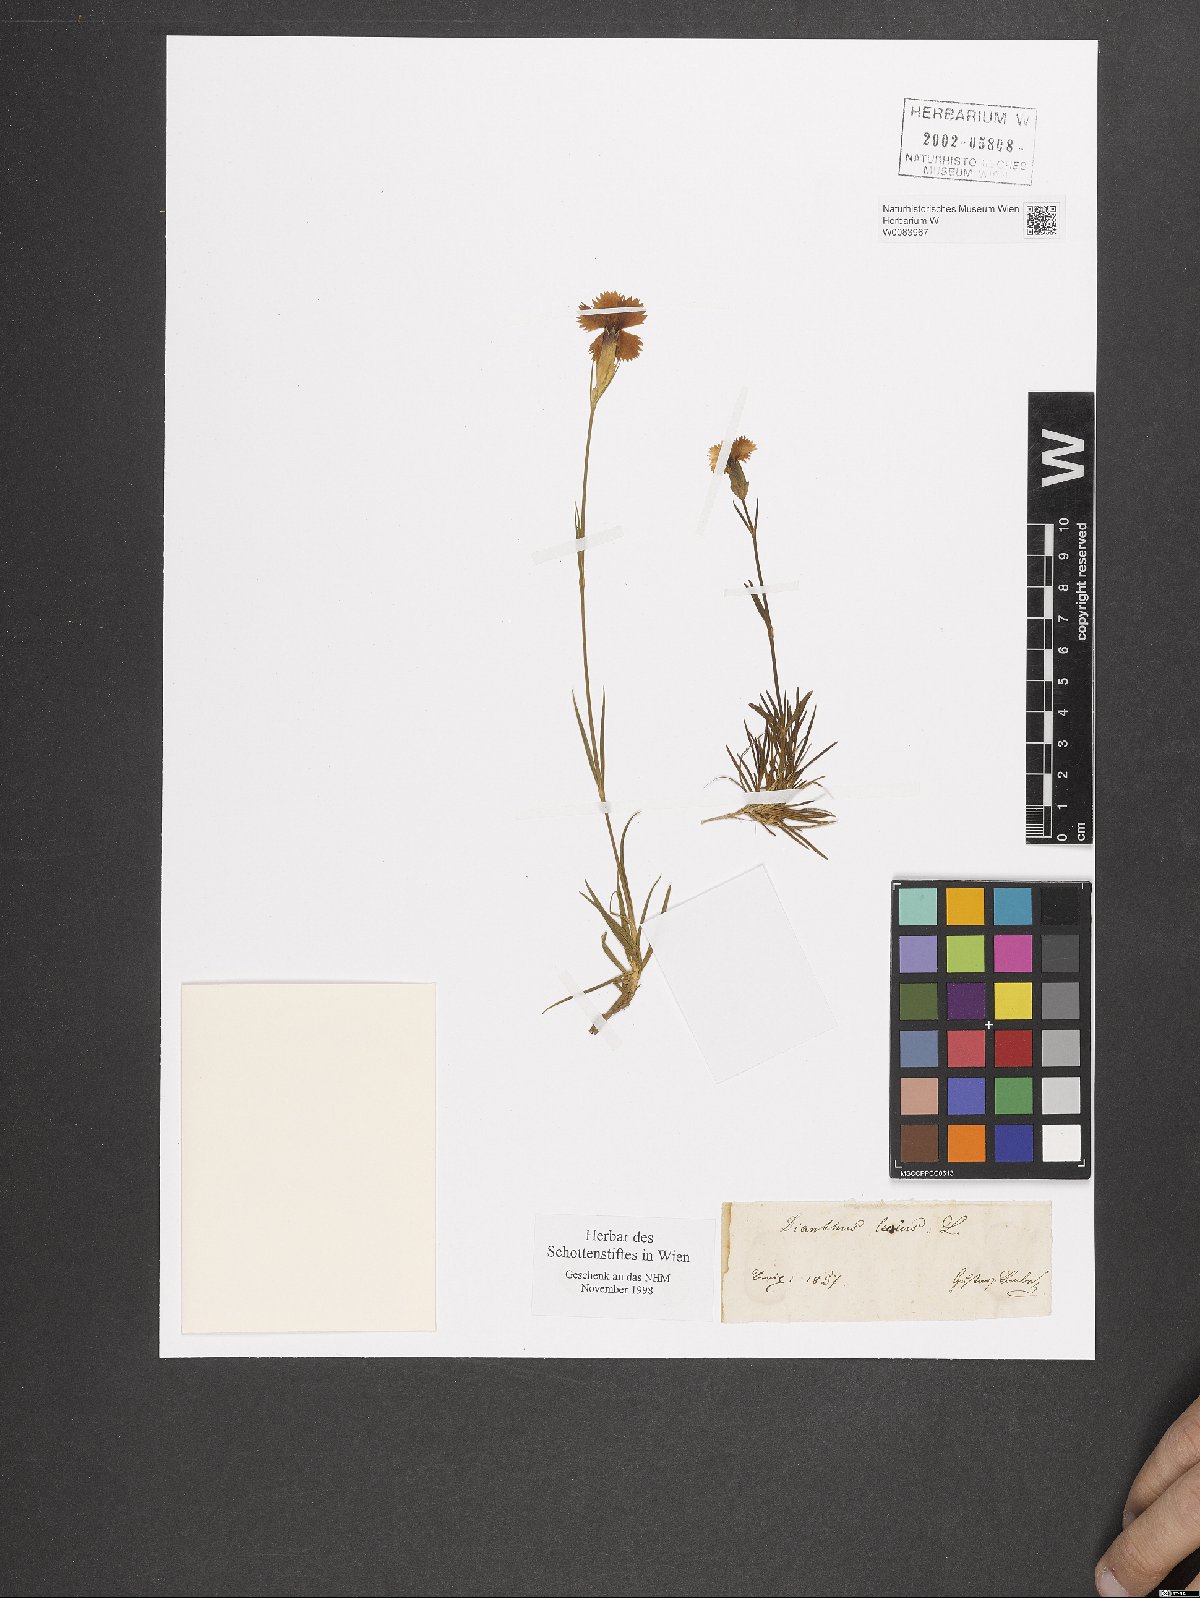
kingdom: Plantae
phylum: Tracheophyta
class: Magnoliopsida
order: Caryophyllales
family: Caryophyllaceae
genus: Dianthus
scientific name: Dianthus gratianopolitanus
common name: Cheddar pink
